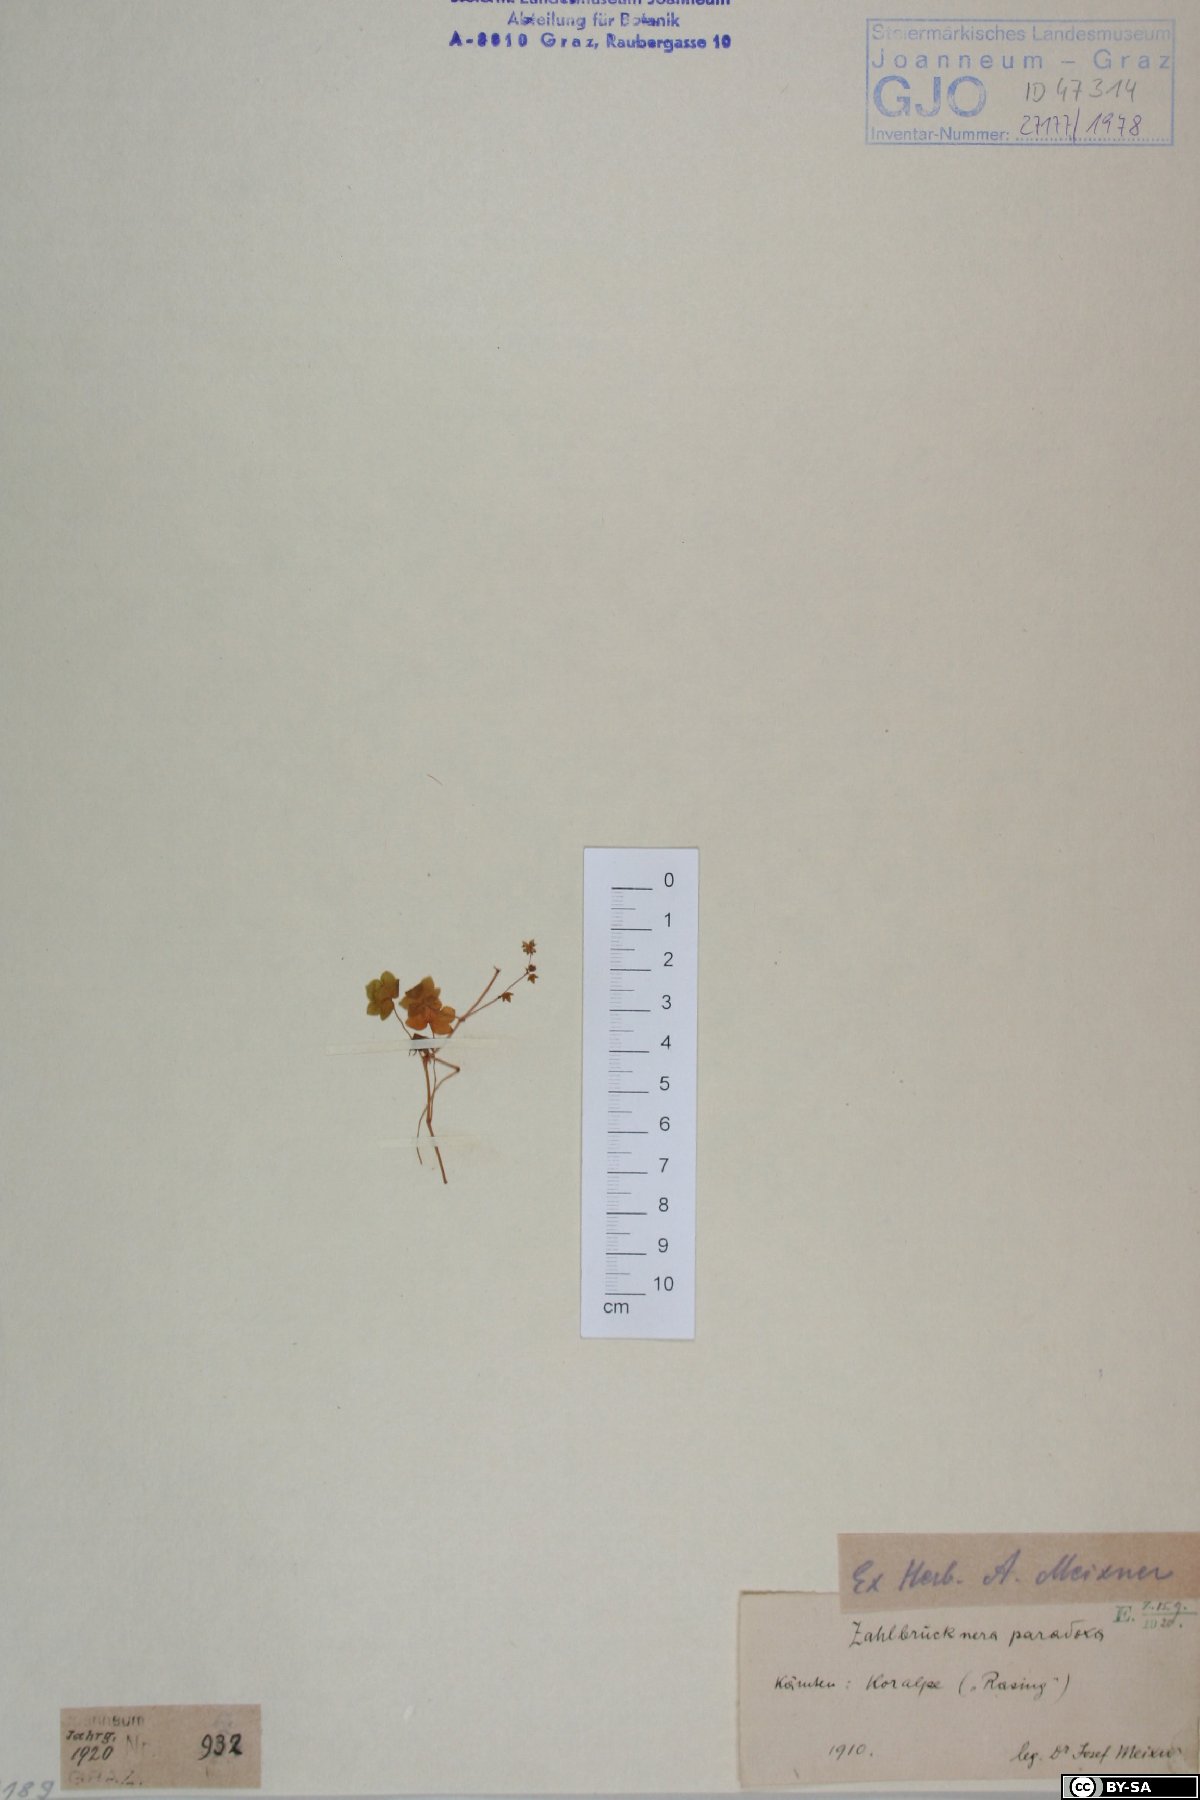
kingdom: Plantae
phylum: Tracheophyta
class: Magnoliopsida
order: Saxifragales
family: Saxifragaceae
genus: Saxifraga
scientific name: Saxifraga paradoxa
